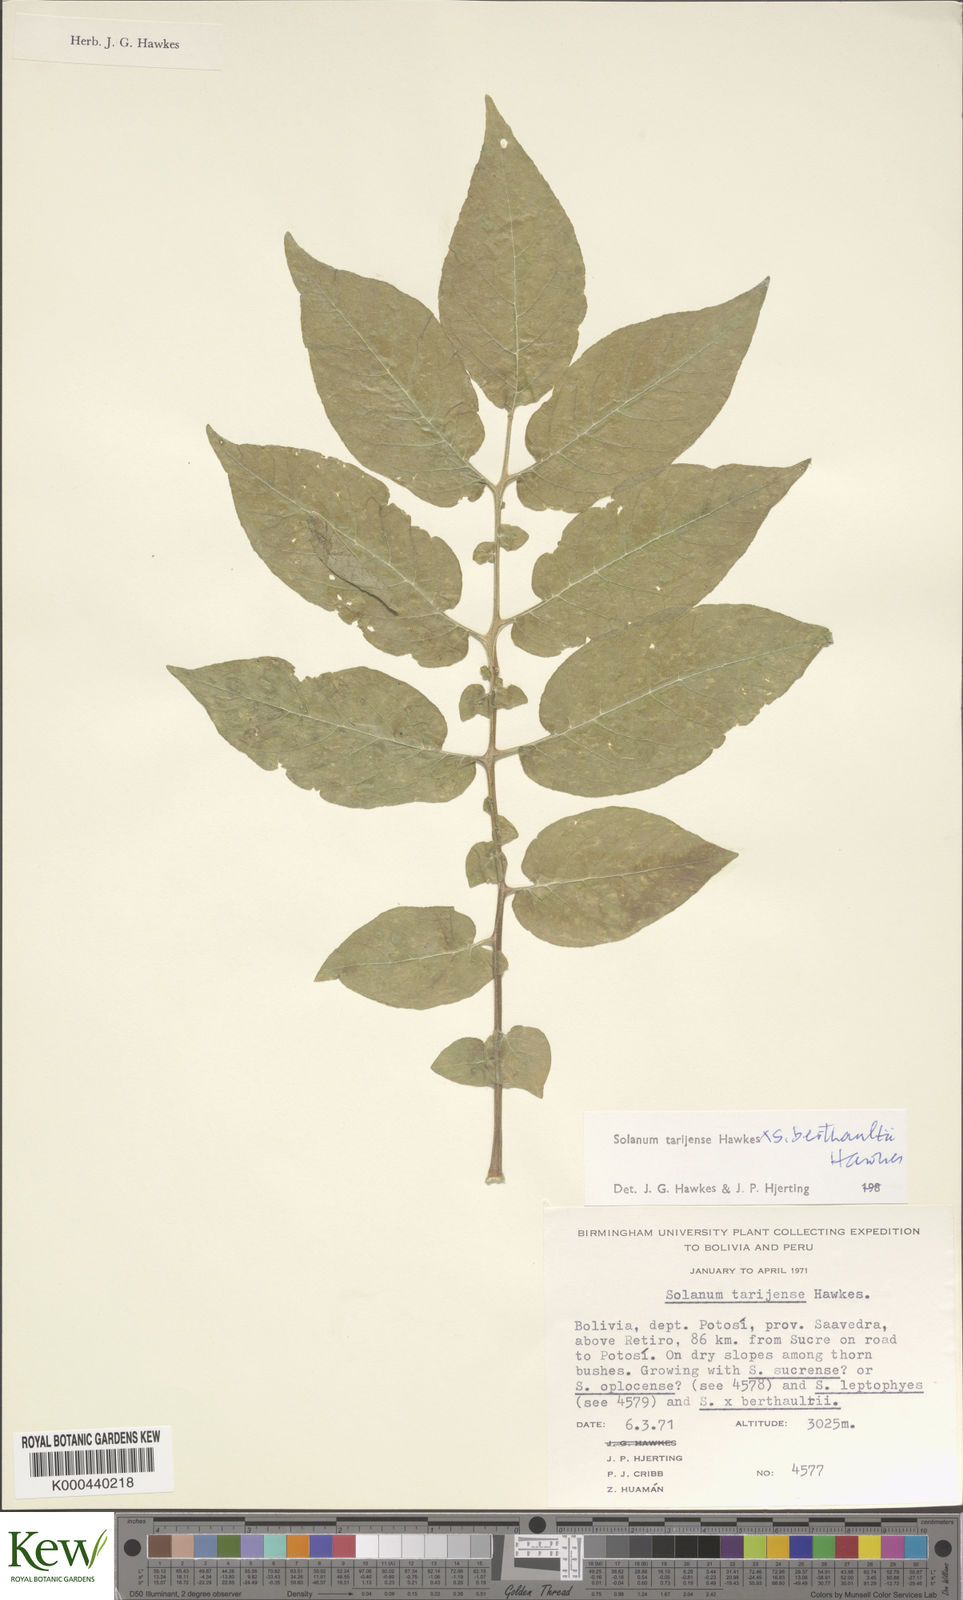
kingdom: Plantae
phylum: Tracheophyta
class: Magnoliopsida
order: Solanales
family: Solanaceae
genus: Solanum
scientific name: Solanum tarijense
